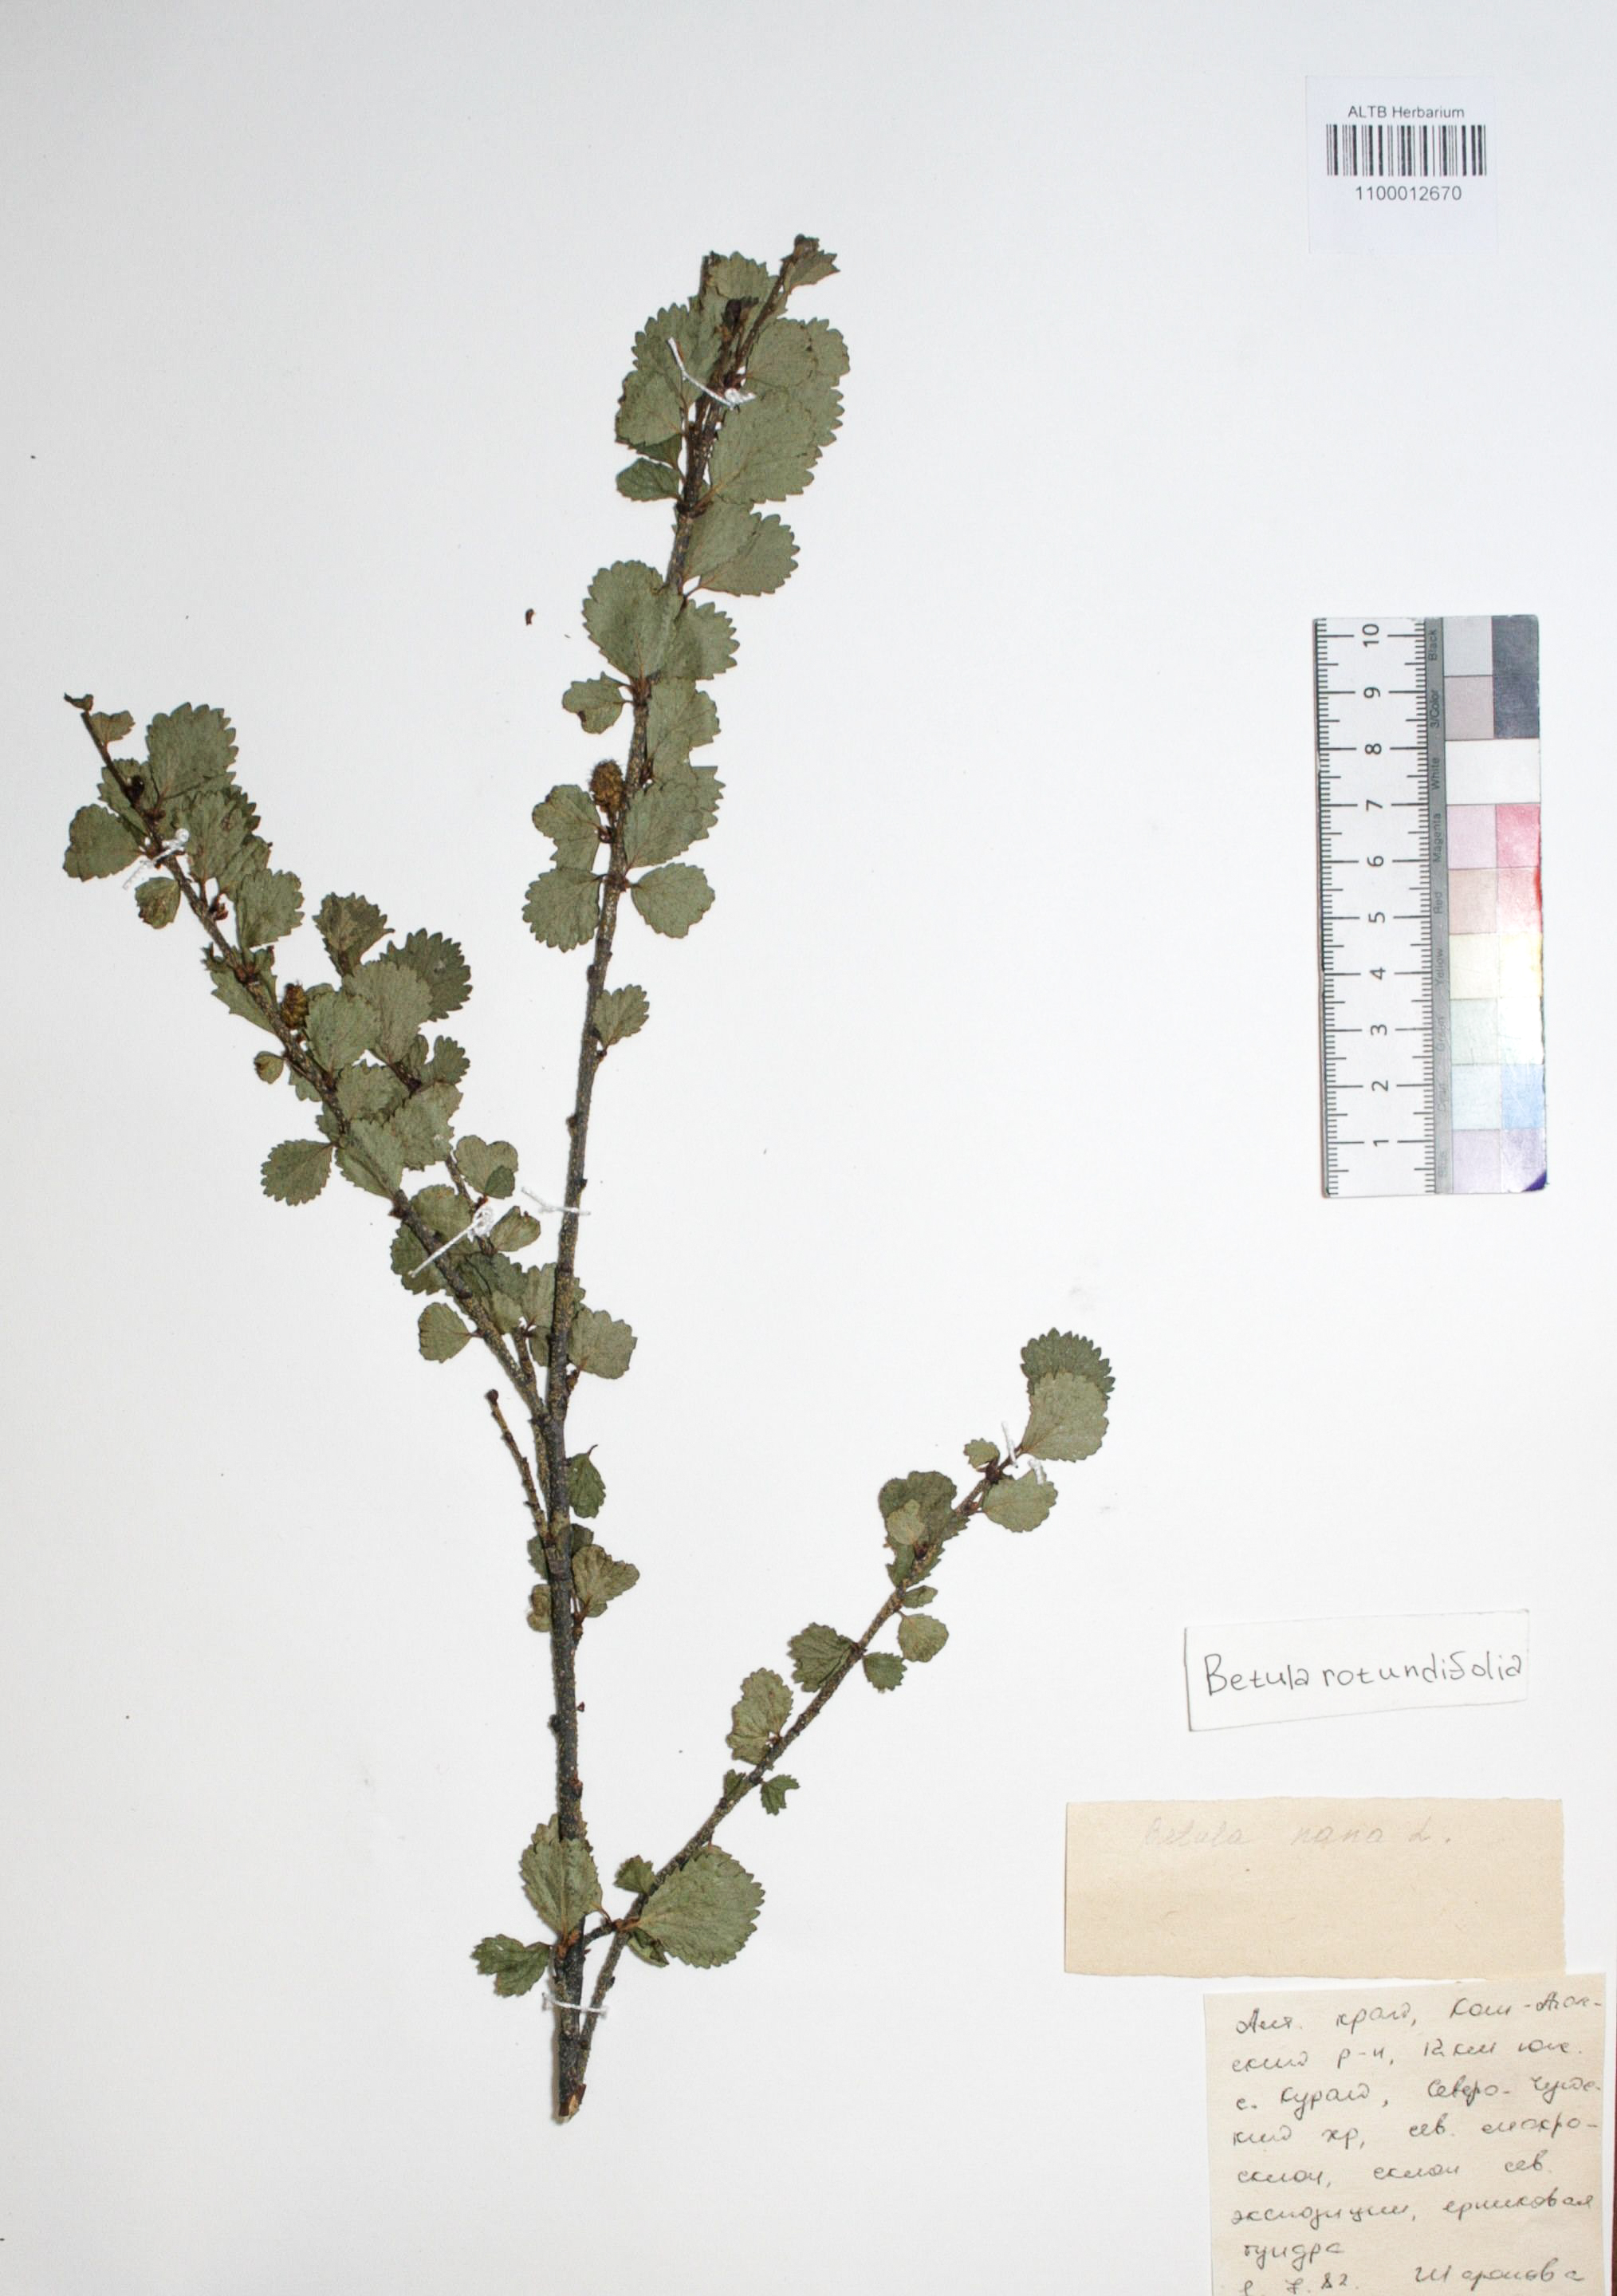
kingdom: Plantae
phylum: Tracheophyta
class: Magnoliopsida
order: Fagales
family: Betulaceae
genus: Betula
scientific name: Betula glandulosa
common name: Dwarf birch
